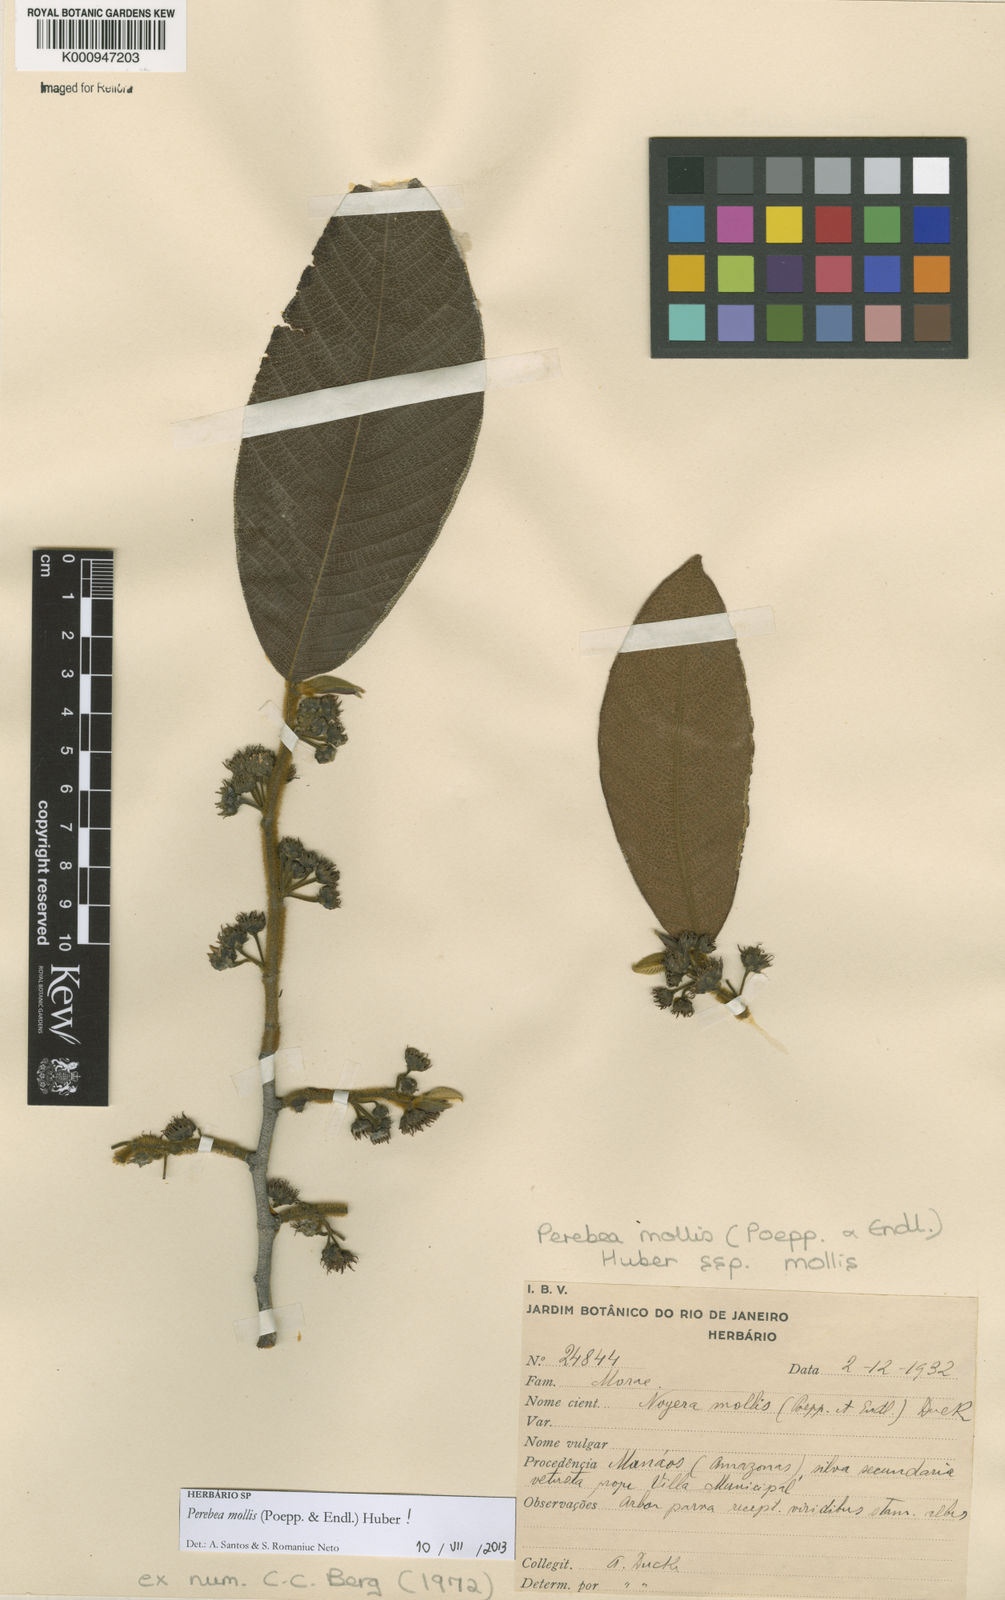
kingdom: Plantae
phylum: Tracheophyta
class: Magnoliopsida
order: Rosales
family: Moraceae
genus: Perebea
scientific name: Perebea mollis
